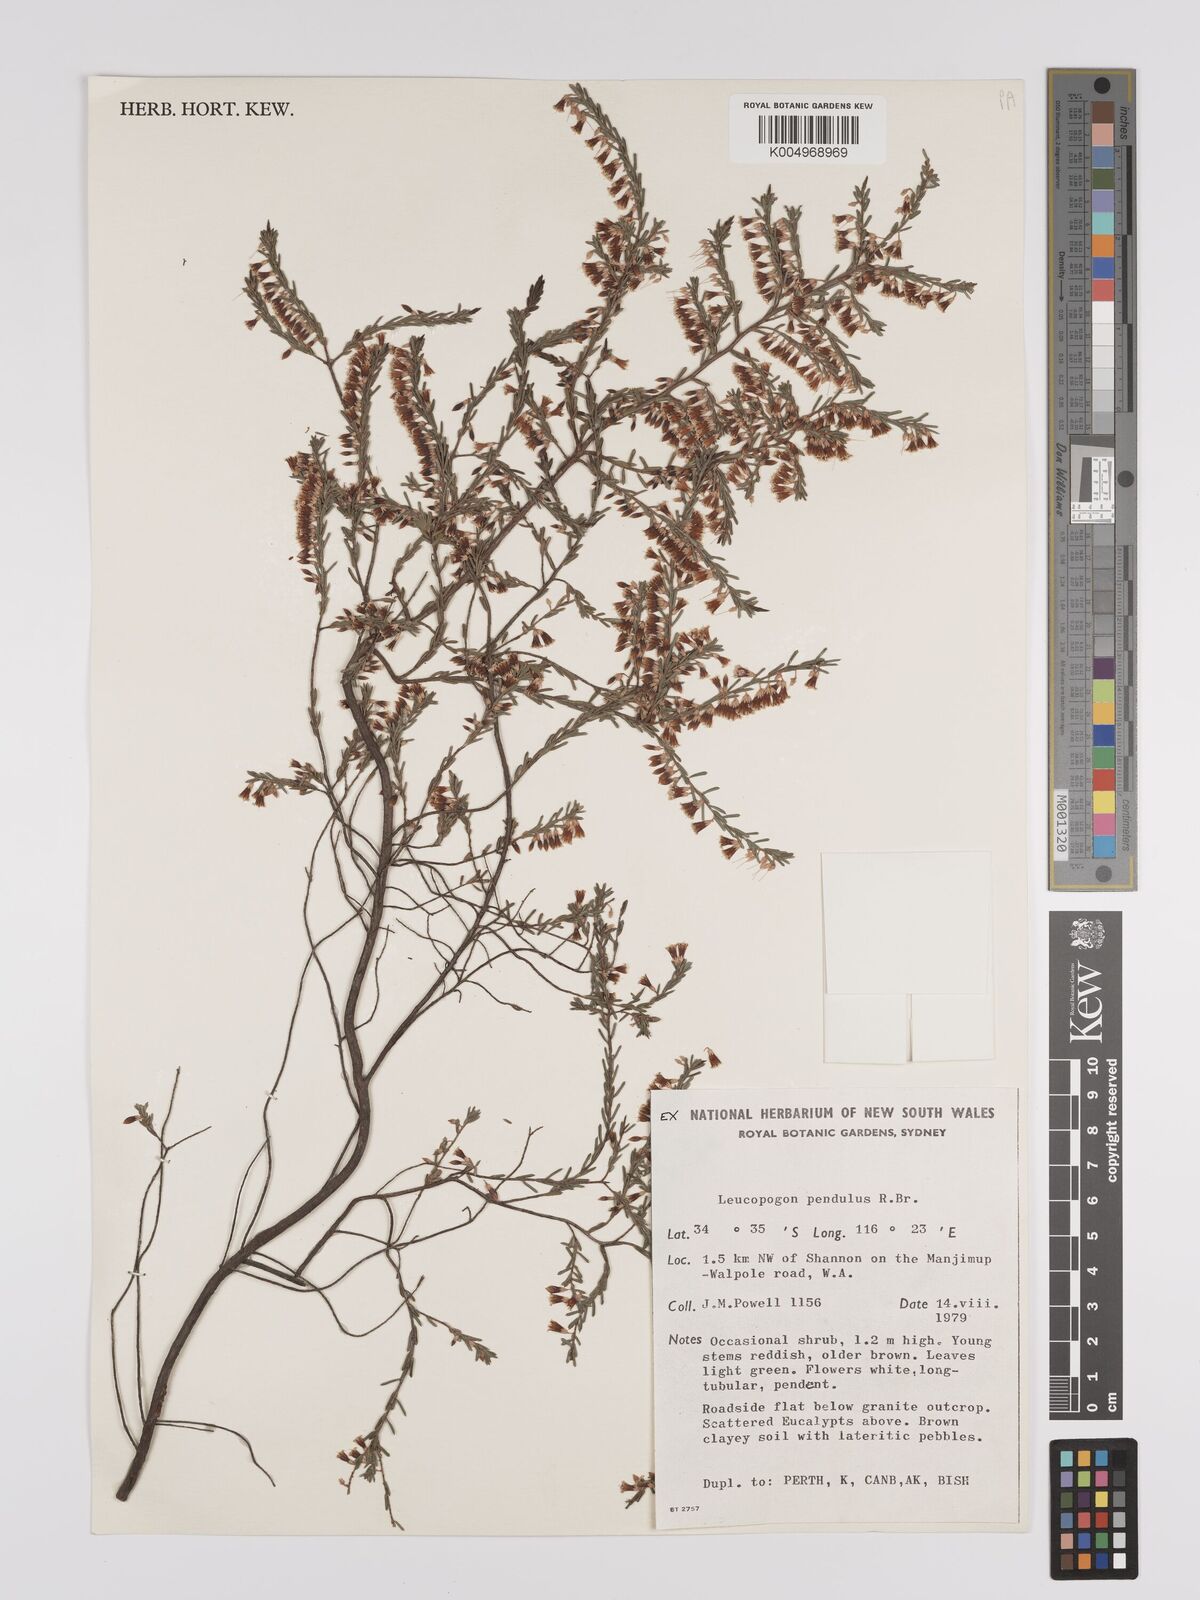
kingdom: Plantae
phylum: Tracheophyta
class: Magnoliopsida
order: Ericales
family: Ericaceae
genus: Styphelia
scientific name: Styphelia pendula
